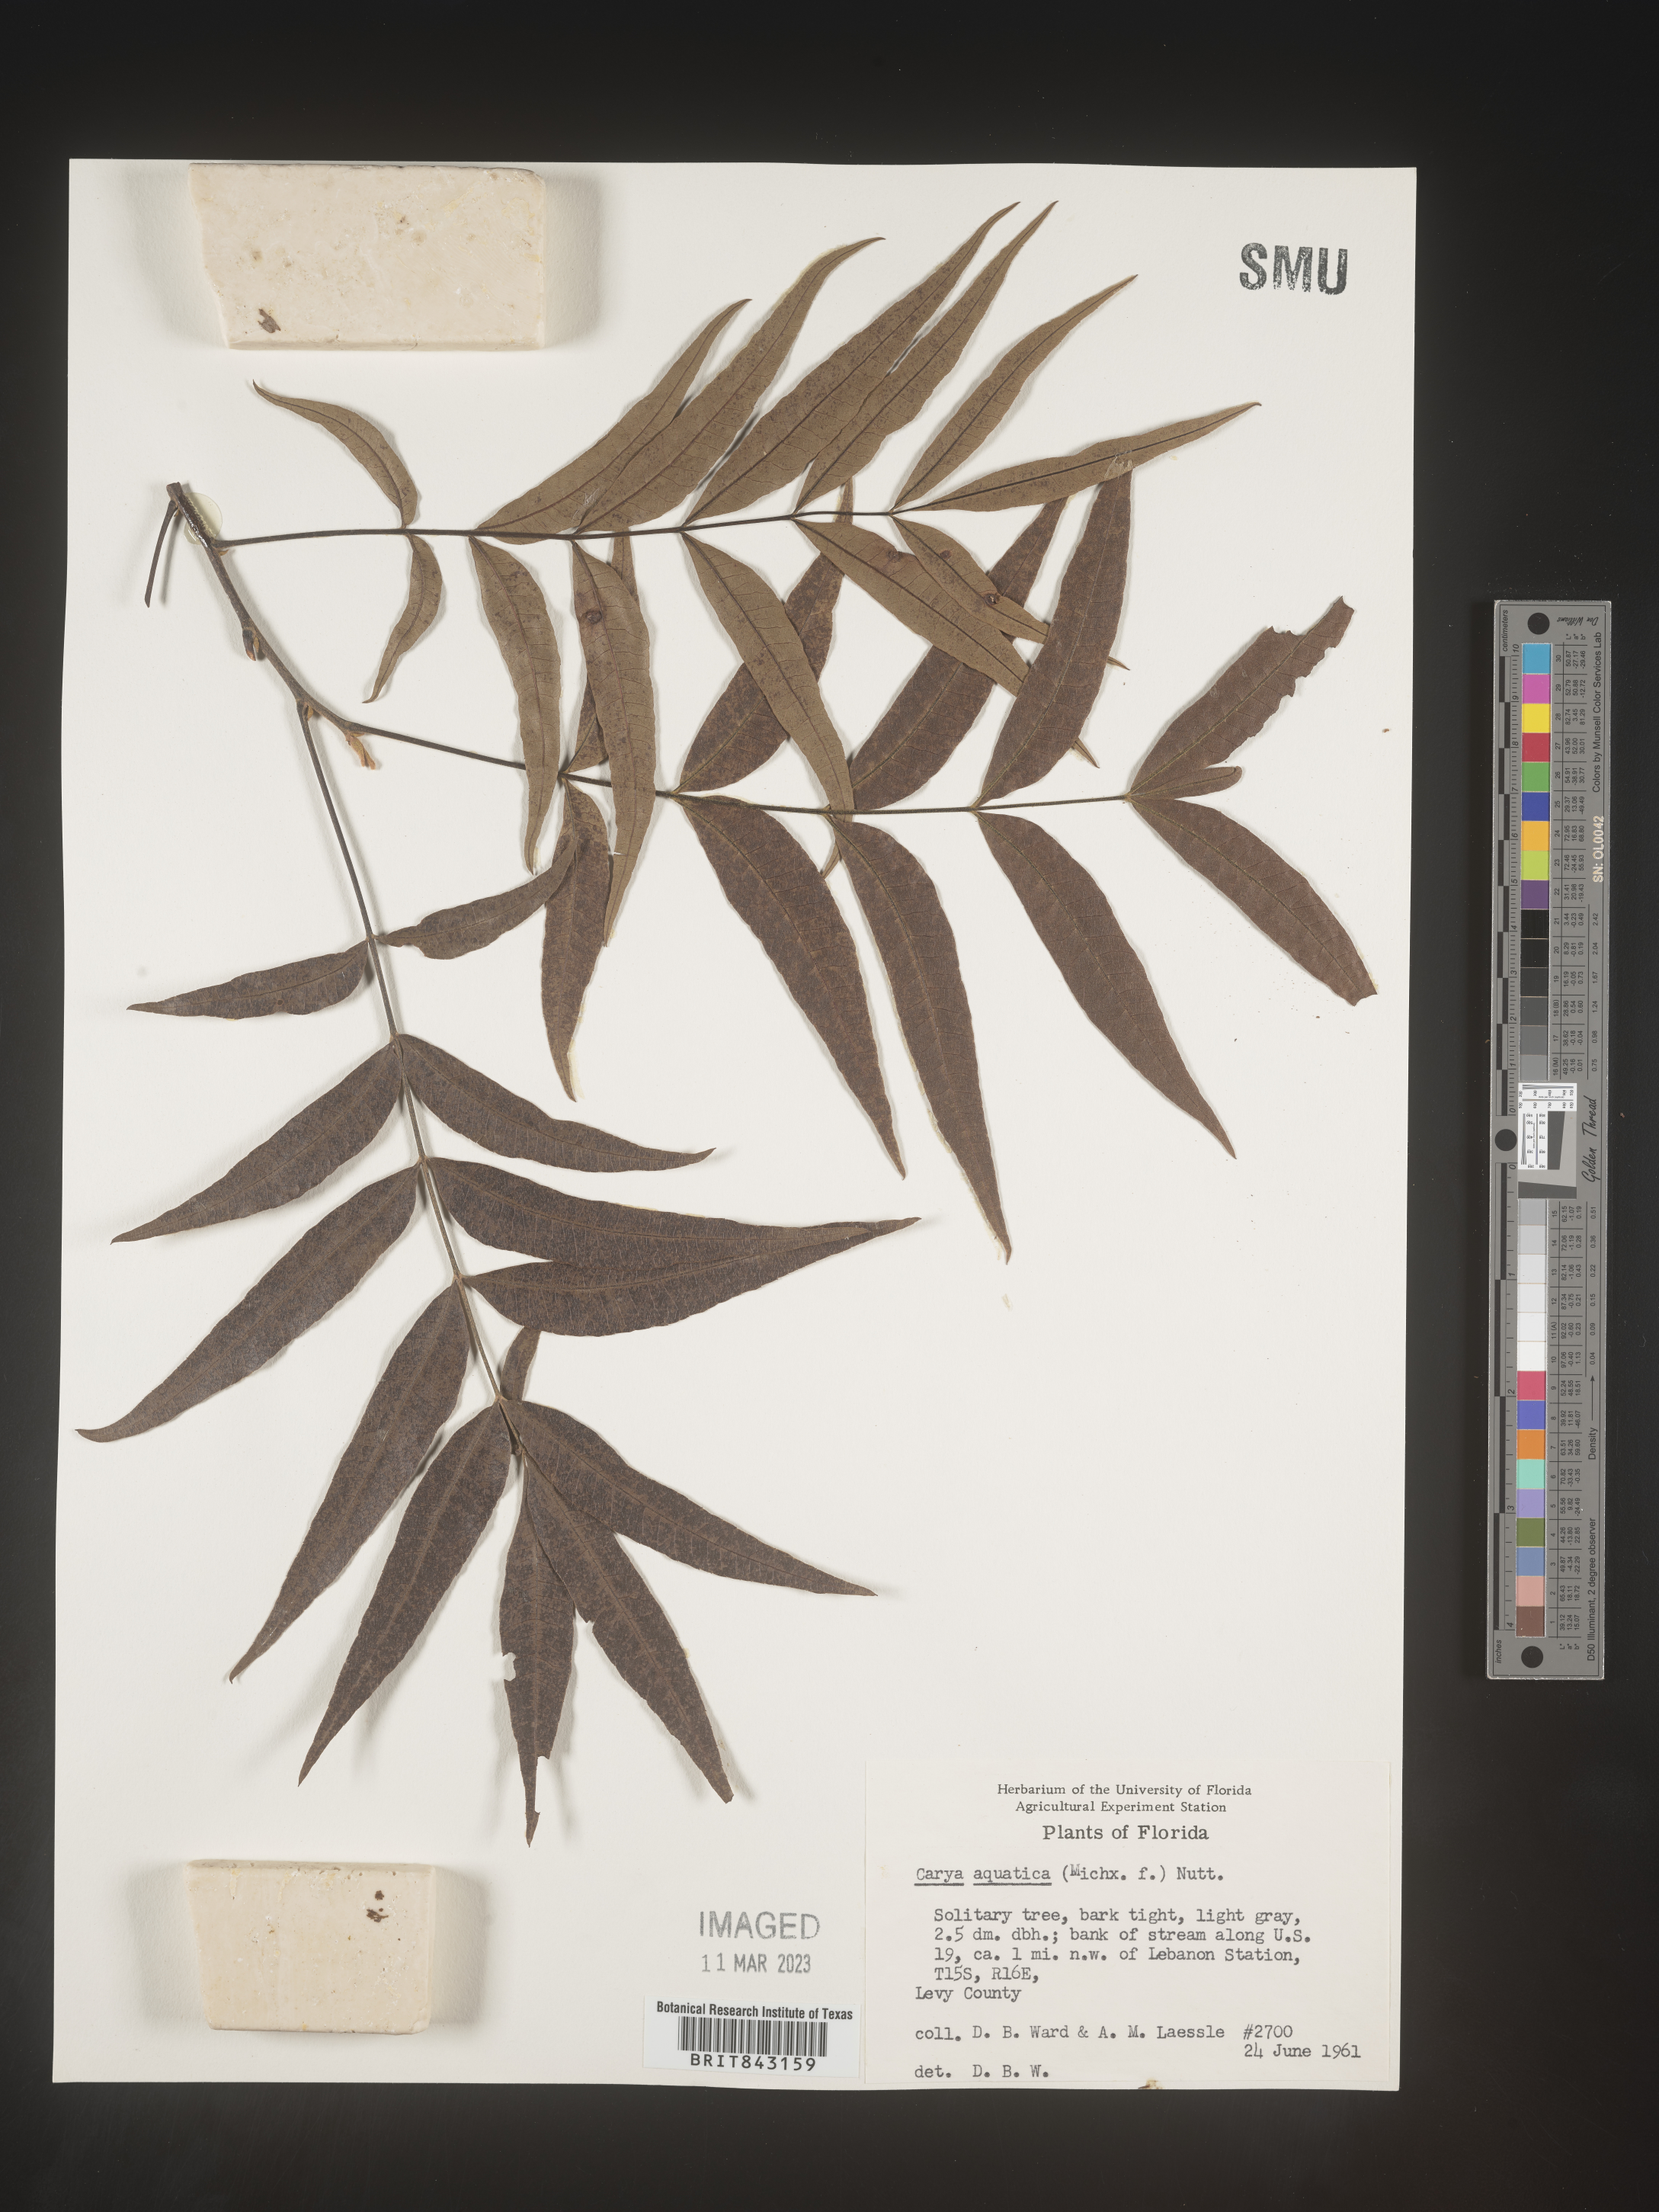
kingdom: Plantae
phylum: Tracheophyta
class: Magnoliopsida
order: Fagales
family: Juglandaceae
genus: Carya
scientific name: Carya aquatica
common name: Water hickory
